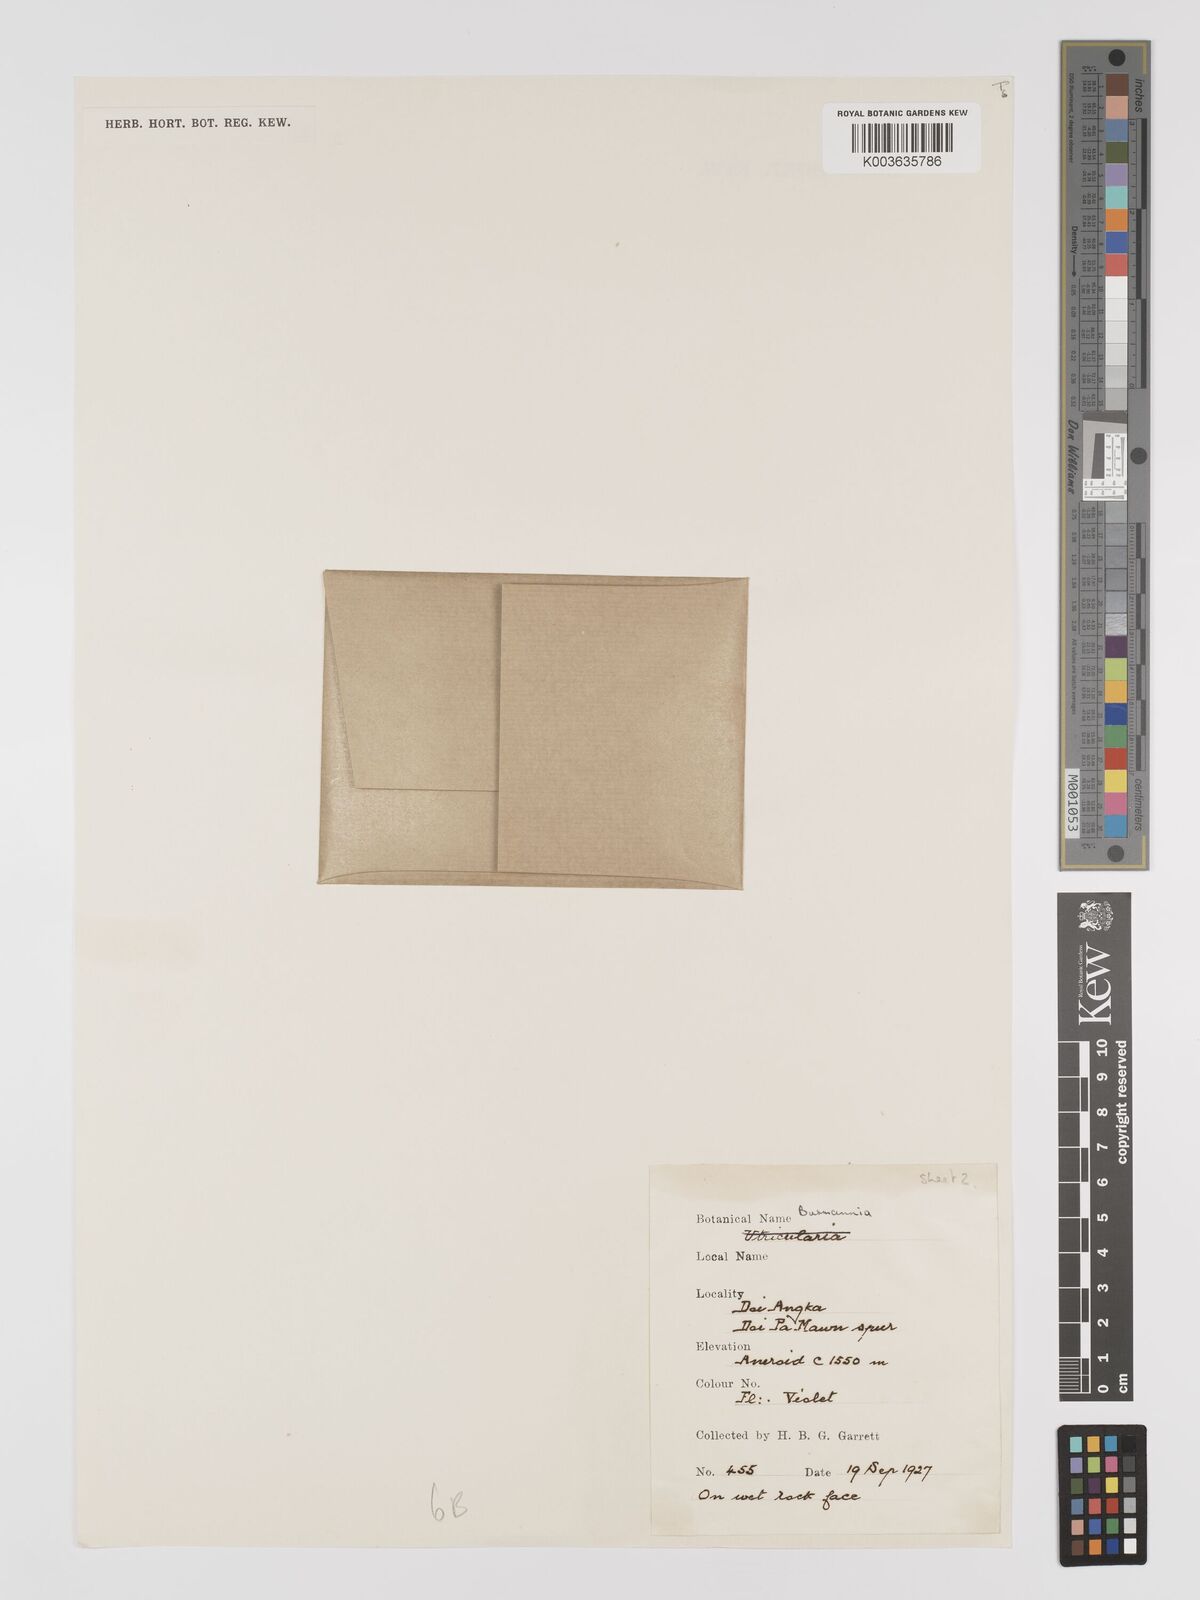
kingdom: Plantae
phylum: Tracheophyta
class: Liliopsida
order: Dioscoreales
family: Burmanniaceae
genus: Burmannia
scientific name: Burmannia
